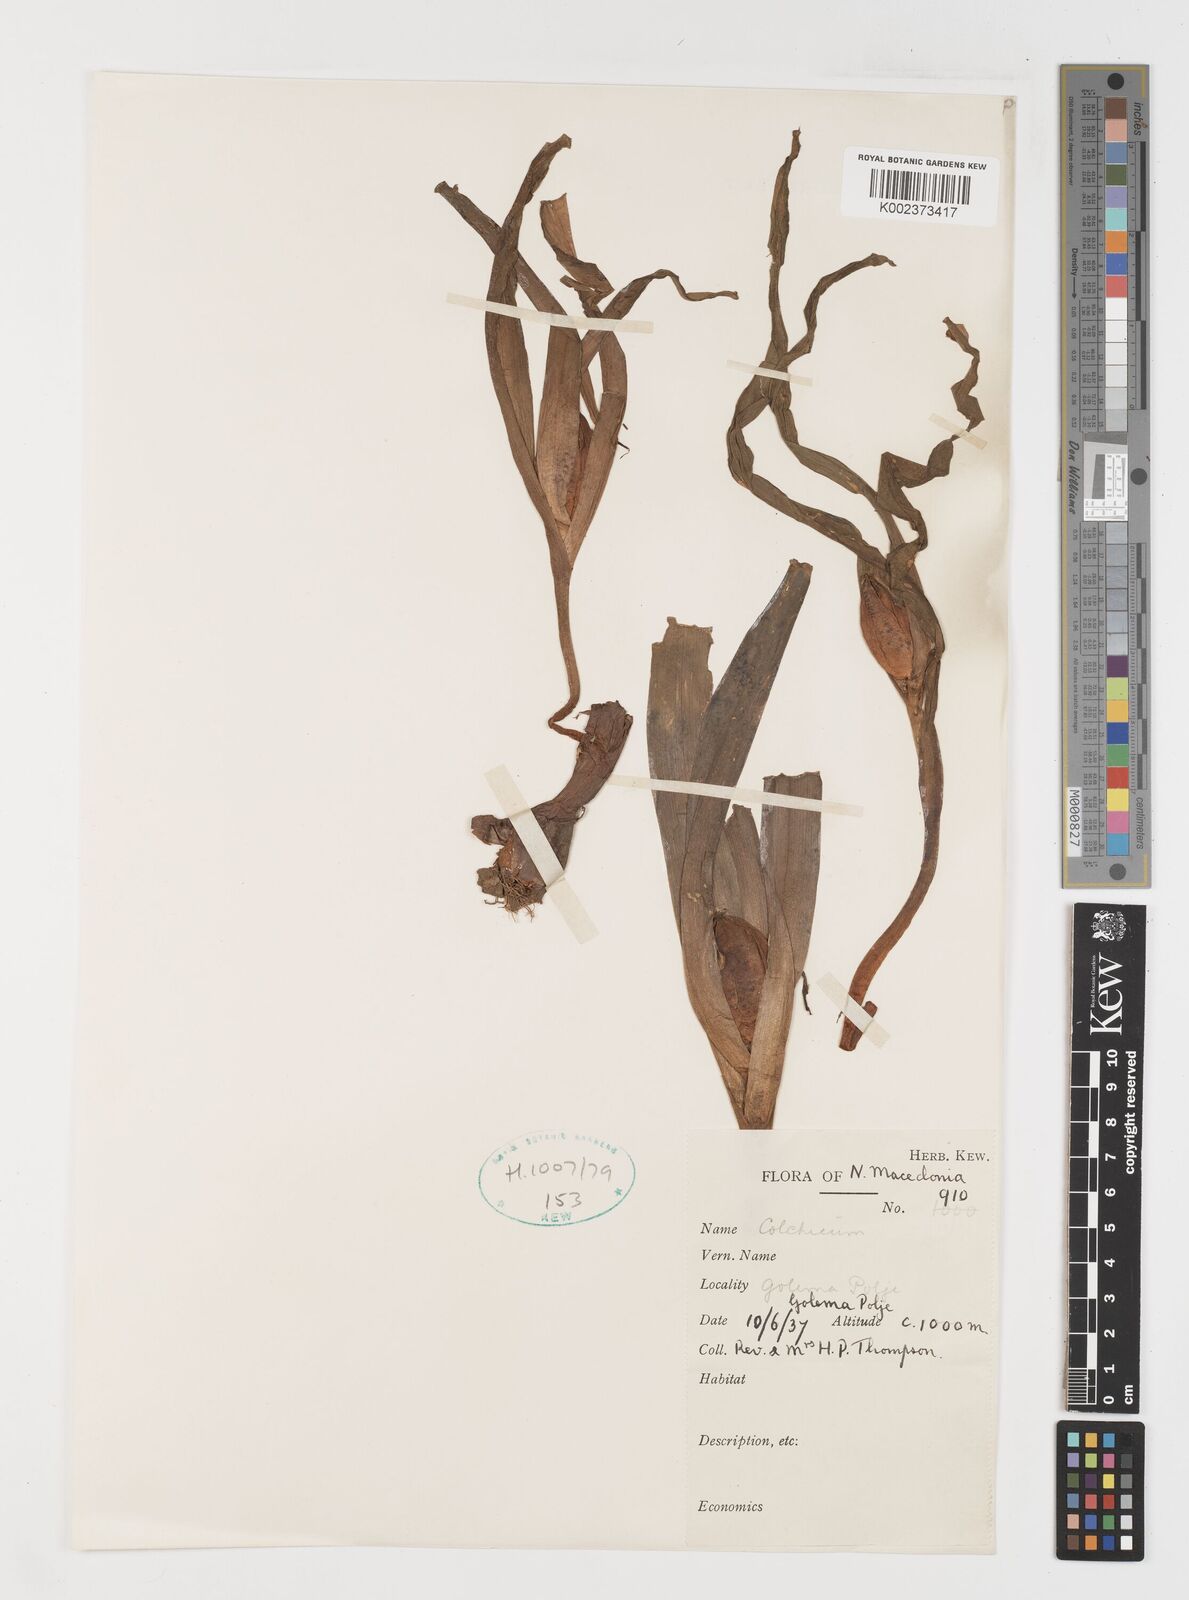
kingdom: Plantae
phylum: Tracheophyta
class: Liliopsida
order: Liliales
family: Colchicaceae
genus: Colchicum
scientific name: Colchicum
